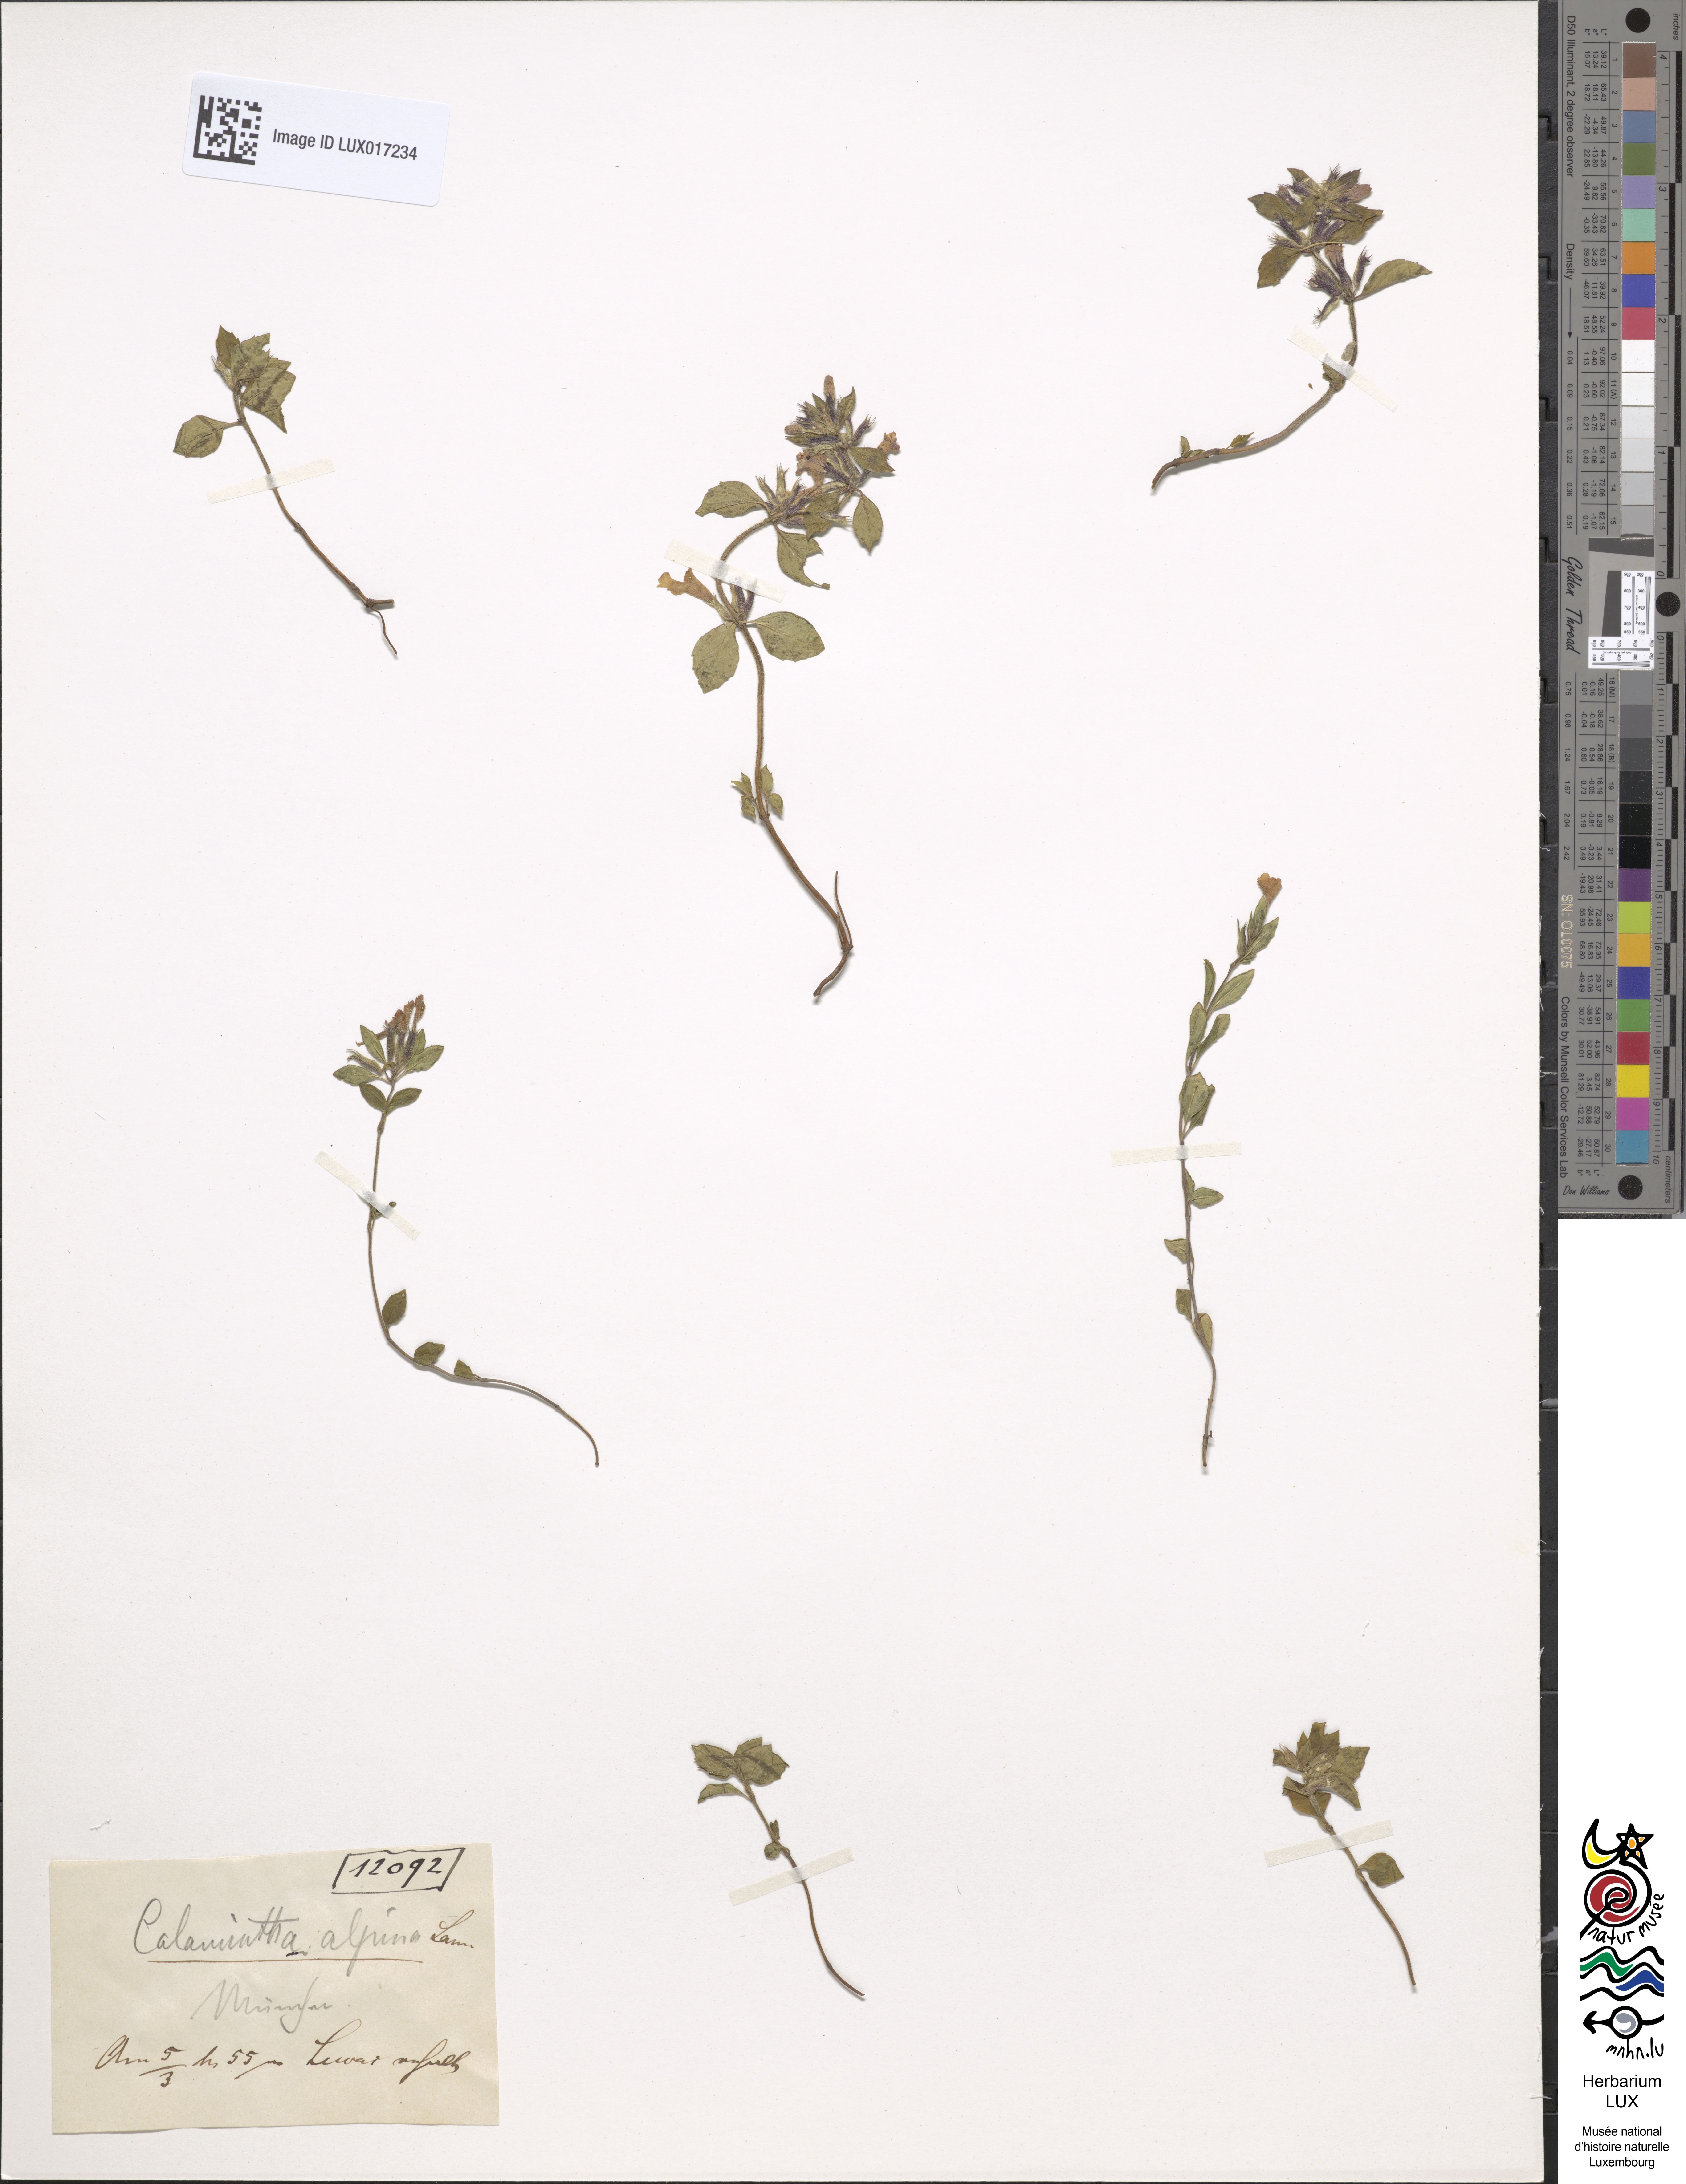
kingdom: Plantae
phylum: Tracheophyta
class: Magnoliopsida
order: Lamiales
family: Lamiaceae
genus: Clinopodium
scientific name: Clinopodium alpinum
